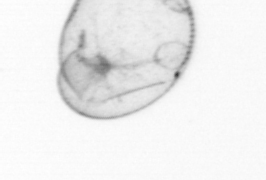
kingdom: Chromista
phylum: Myzozoa
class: Dinophyceae
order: Noctilucales
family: Noctilucaceae
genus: Noctiluca
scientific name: Noctiluca scintillans
